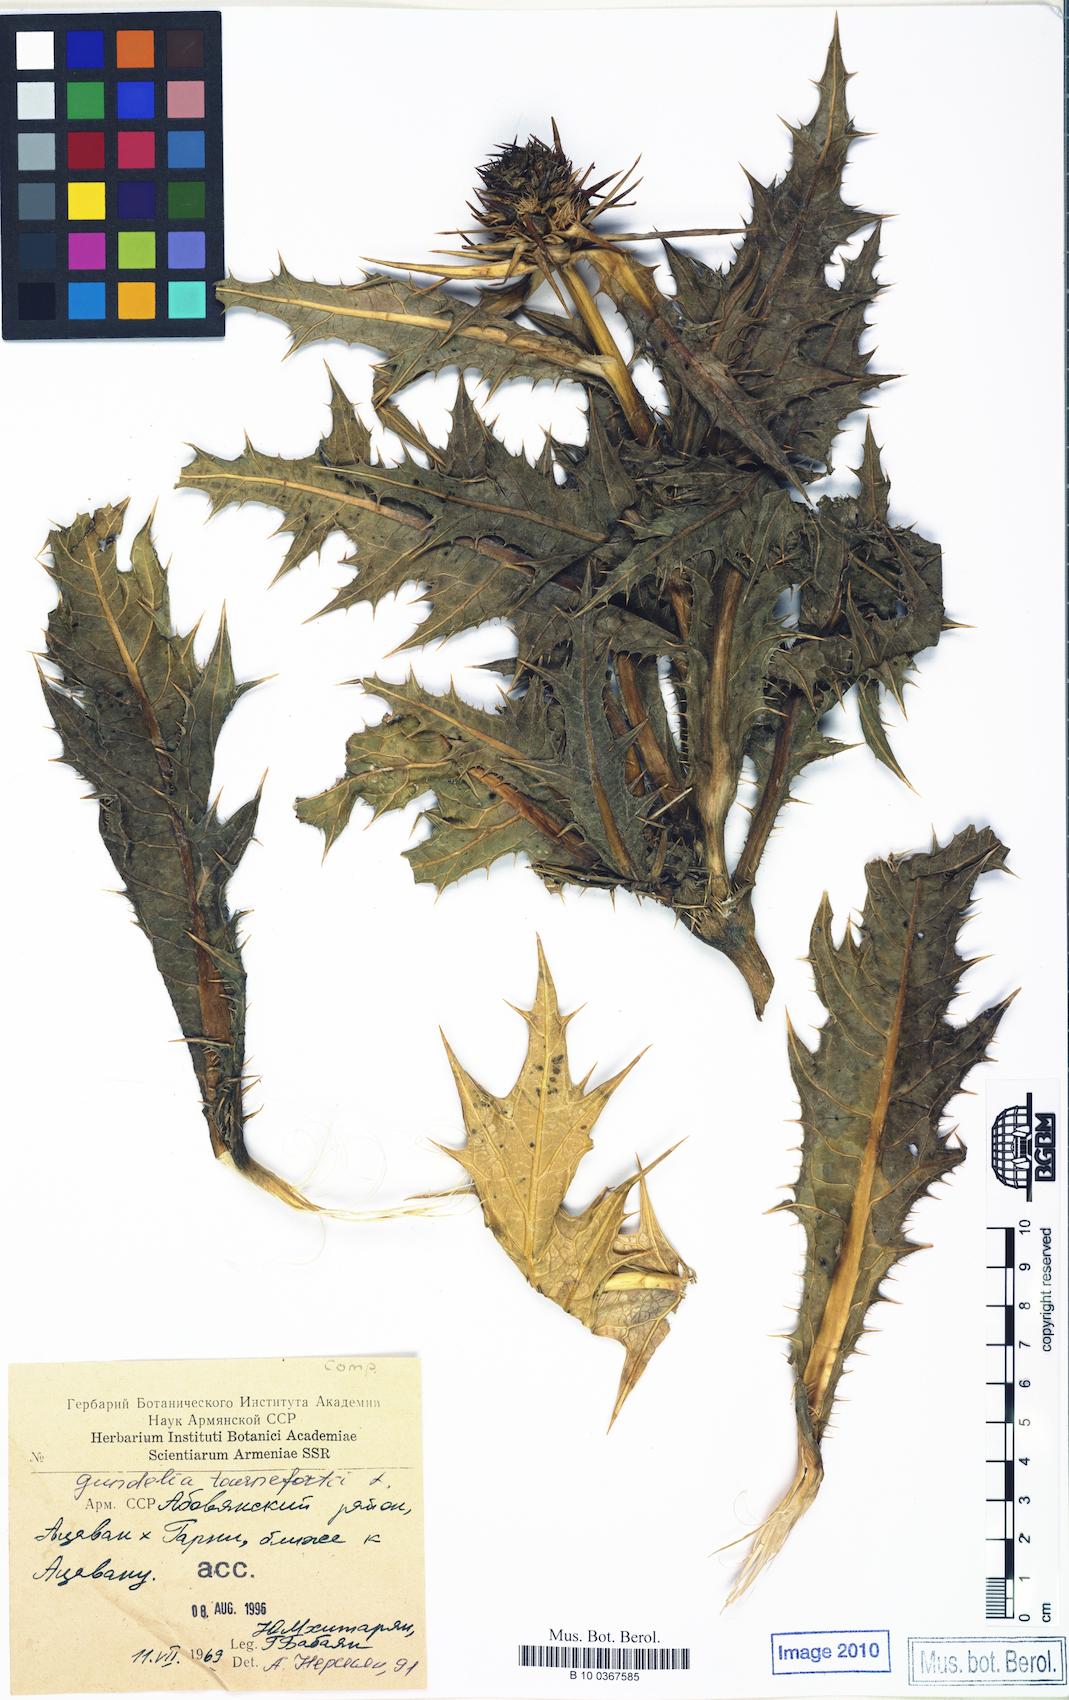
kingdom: Plantae
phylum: Tracheophyta
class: Magnoliopsida
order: Asterales
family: Asteraceae
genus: Gundelia
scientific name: Gundelia tournefortii
